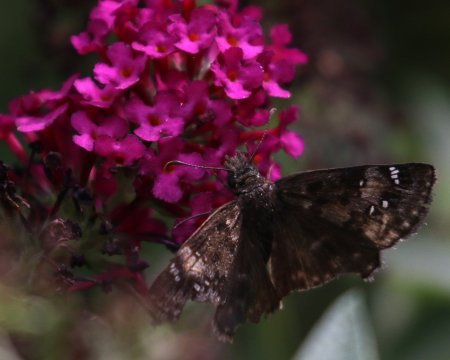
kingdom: Animalia
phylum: Arthropoda
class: Insecta
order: Lepidoptera
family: Hesperiidae
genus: Gesta
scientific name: Gesta
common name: Horace's Duskywing
